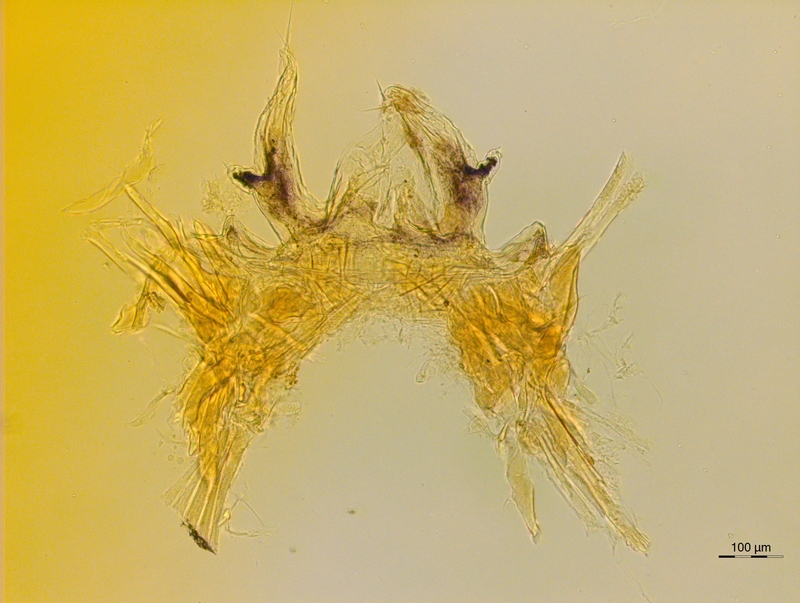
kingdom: Animalia
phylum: Arthropoda
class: Diplopoda
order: Chordeumatida
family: Anthroleucosomatidae
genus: Anamastigona
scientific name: Anamastigona hispidula
